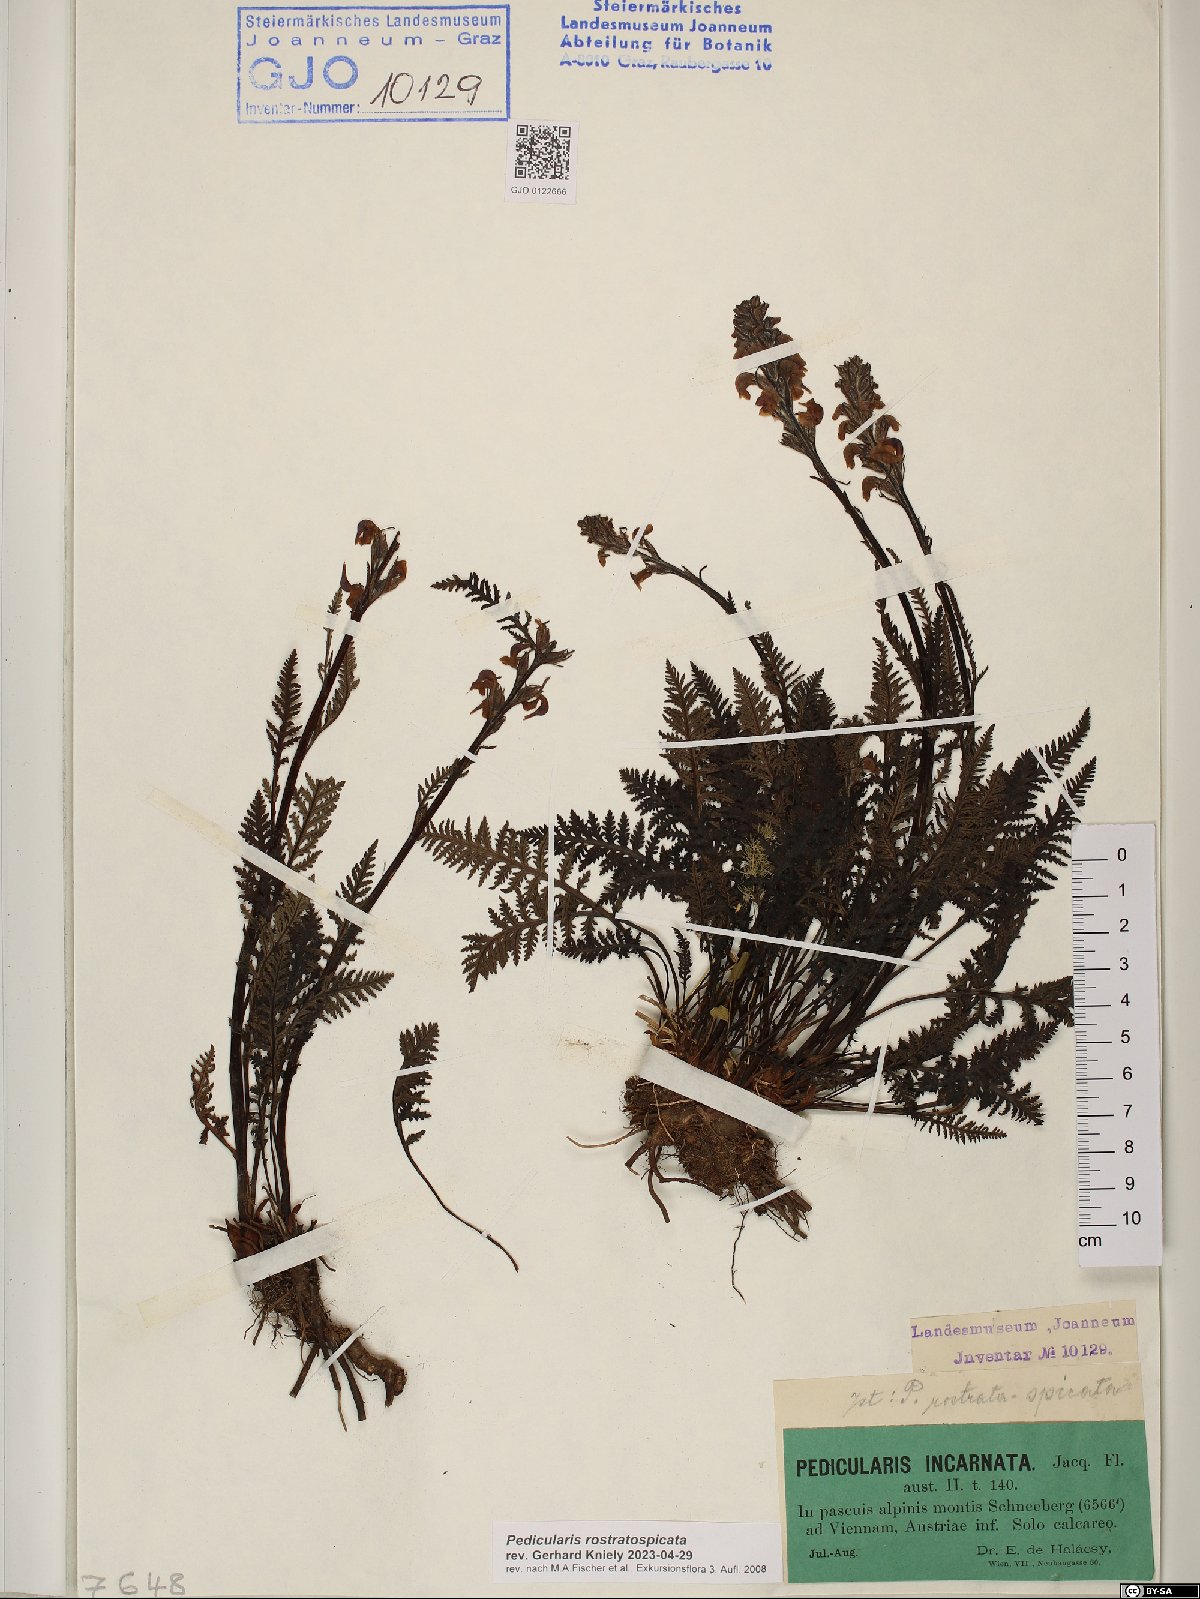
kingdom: Plantae
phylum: Tracheophyta
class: Magnoliopsida
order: Lamiales
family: Orobanchaceae
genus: Pedicularis
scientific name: Pedicularis rostratospicata
